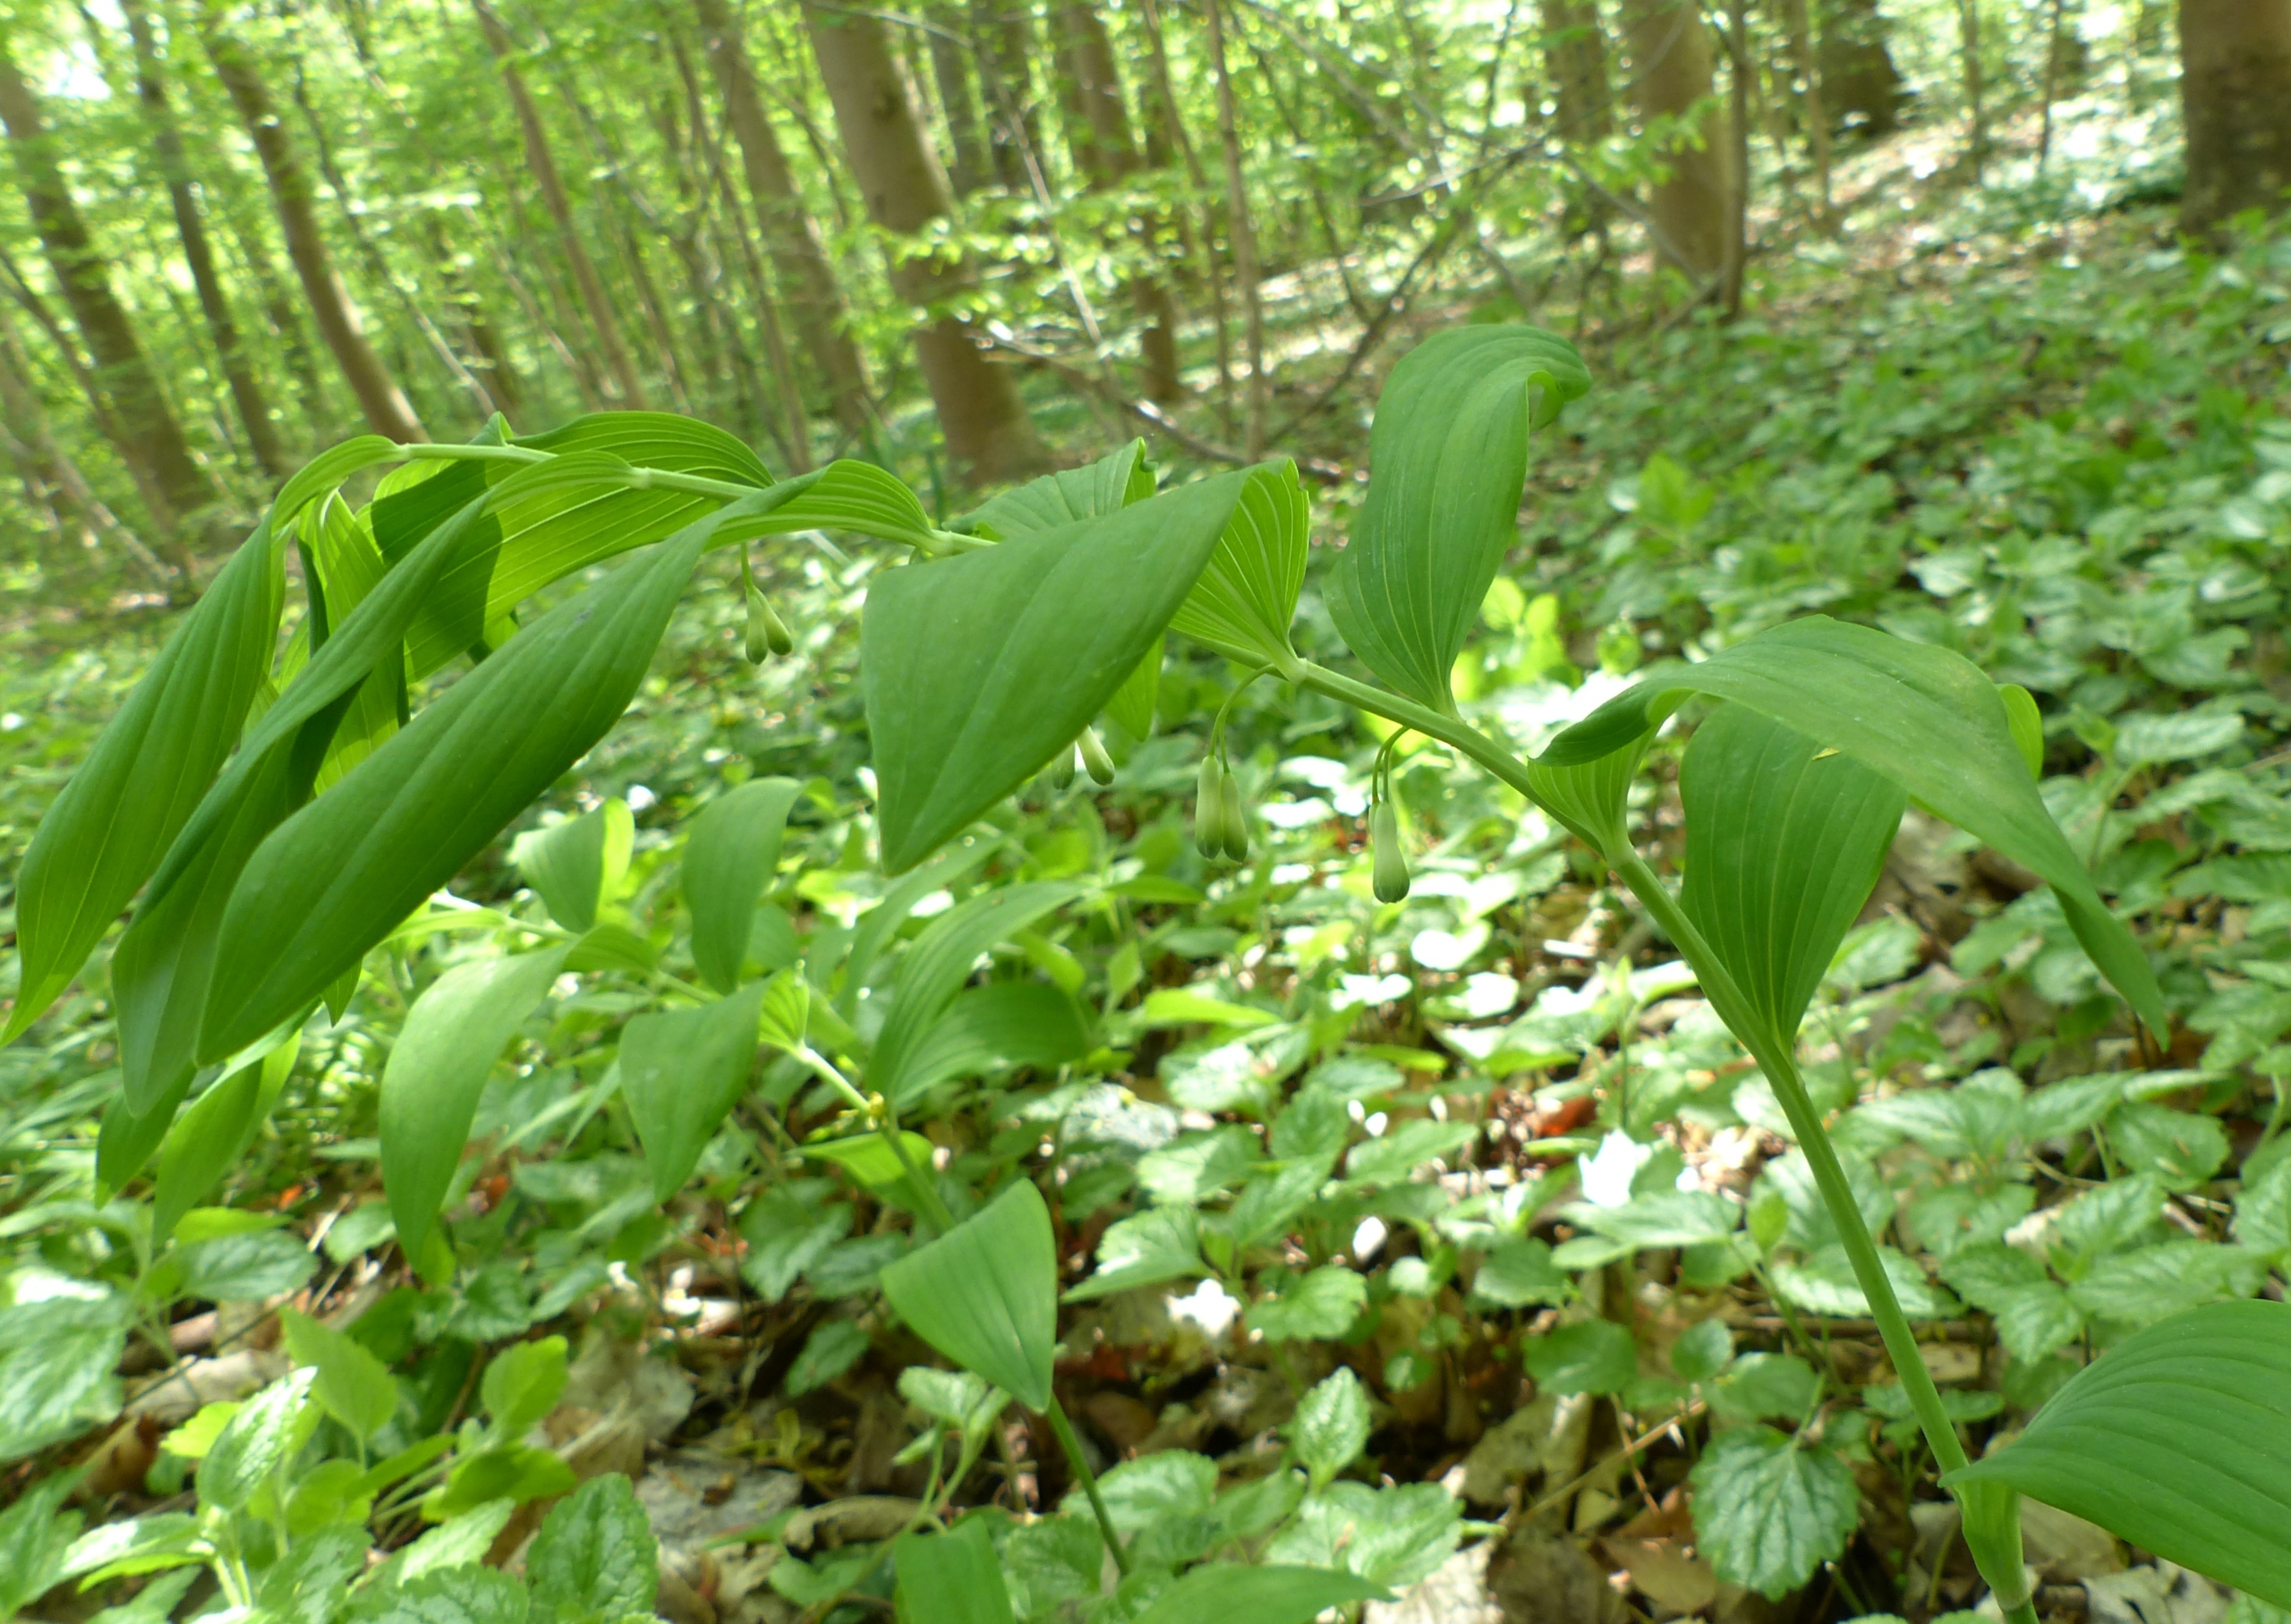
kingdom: Plantae
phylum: Tracheophyta
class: Liliopsida
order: Asparagales
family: Asparagaceae
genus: Polygonatum
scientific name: Polygonatum
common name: Hybrid-konval
